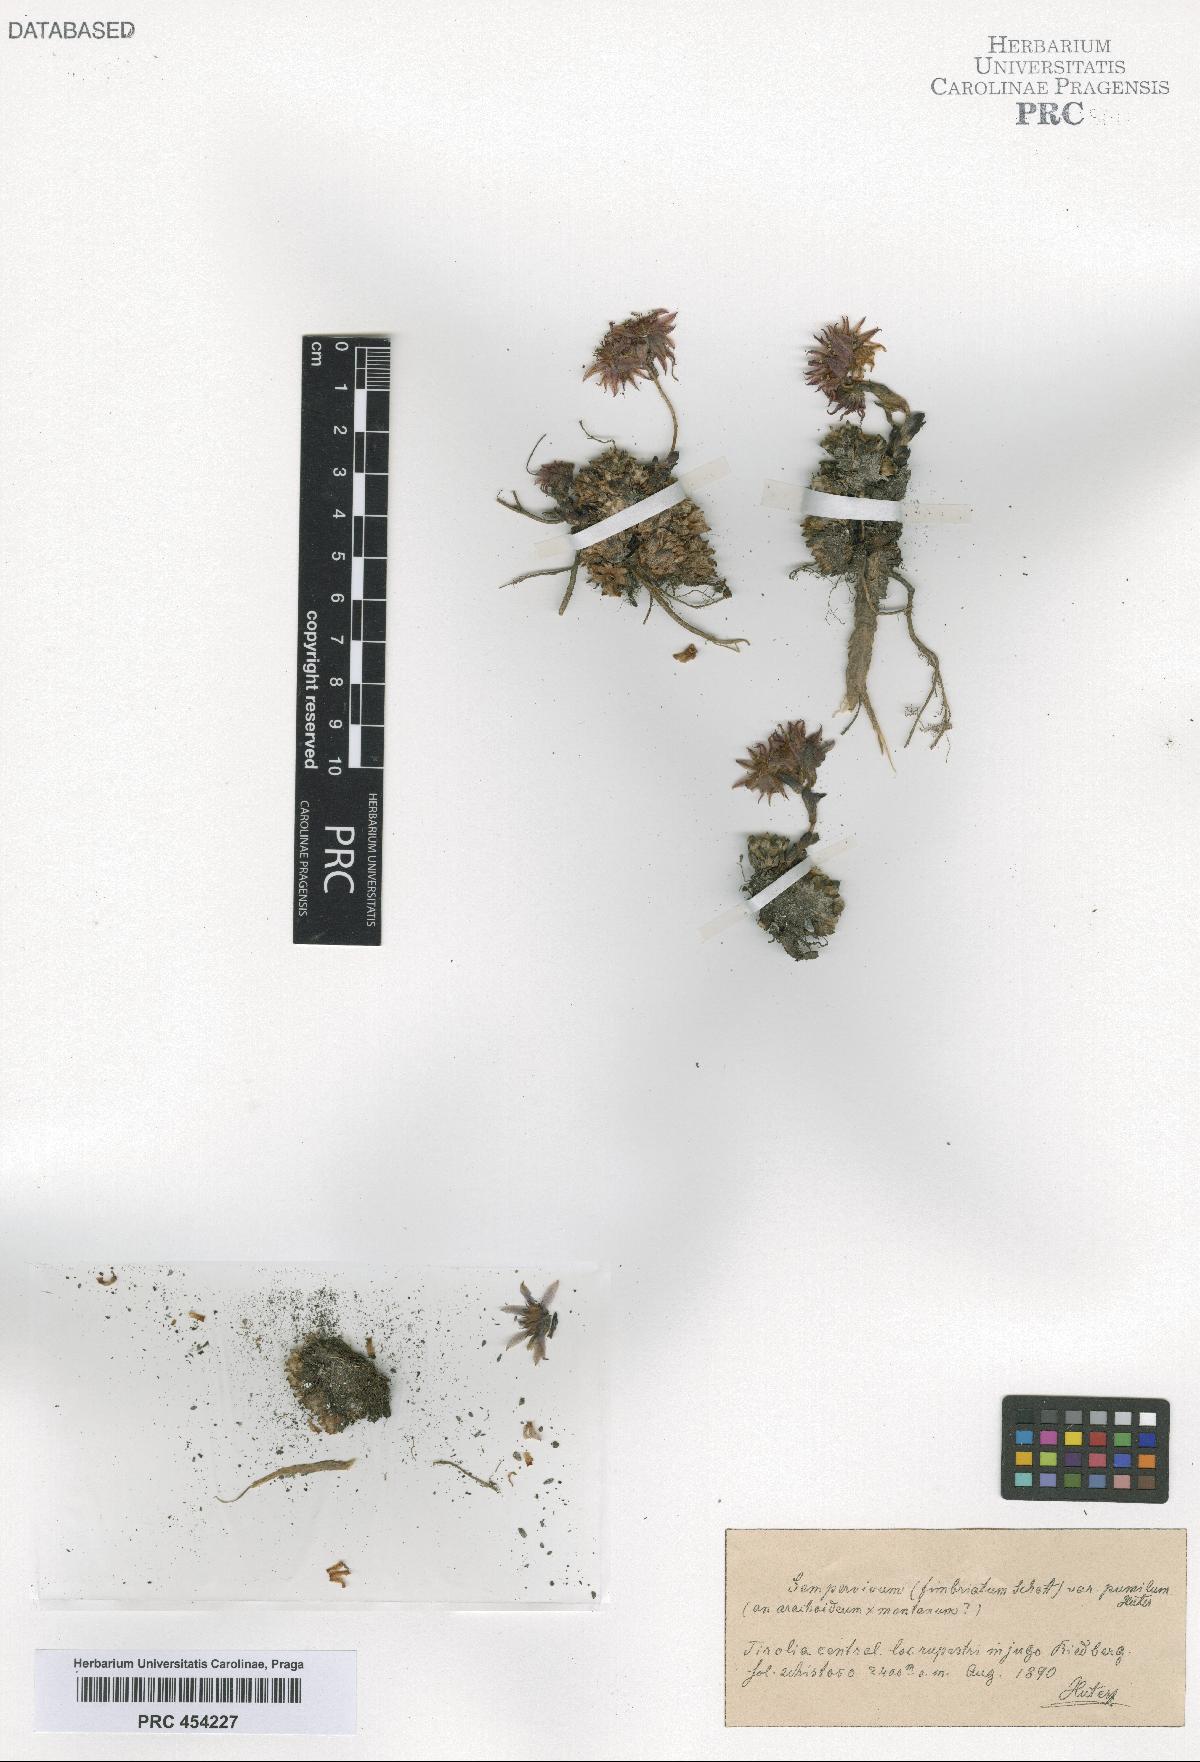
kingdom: Plantae
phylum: Tracheophyta
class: Magnoliopsida
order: Saxifragales
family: Crassulaceae
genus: Sempervivum
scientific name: Sempervivum fimbriatum
